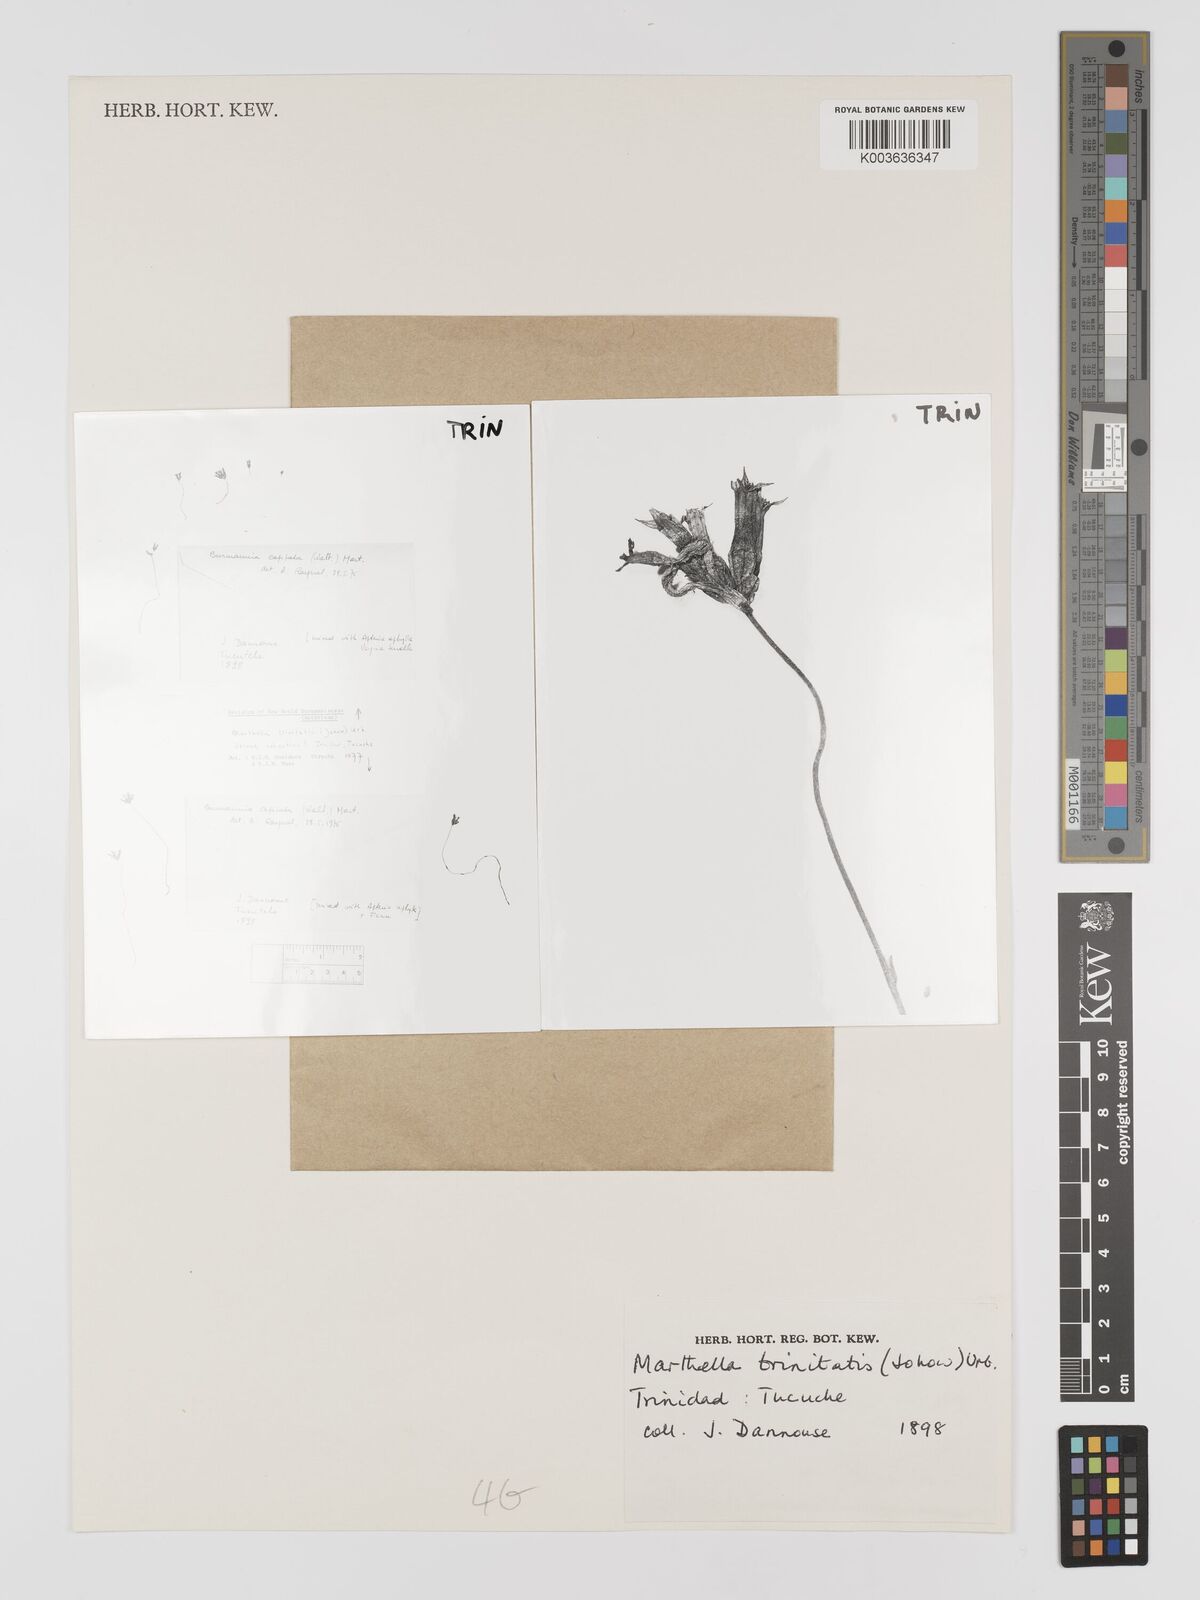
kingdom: Plantae
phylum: Tracheophyta
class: Liliopsida
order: Dioscoreales
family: Burmanniaceae
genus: Marthella
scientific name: Marthella trinitatis
